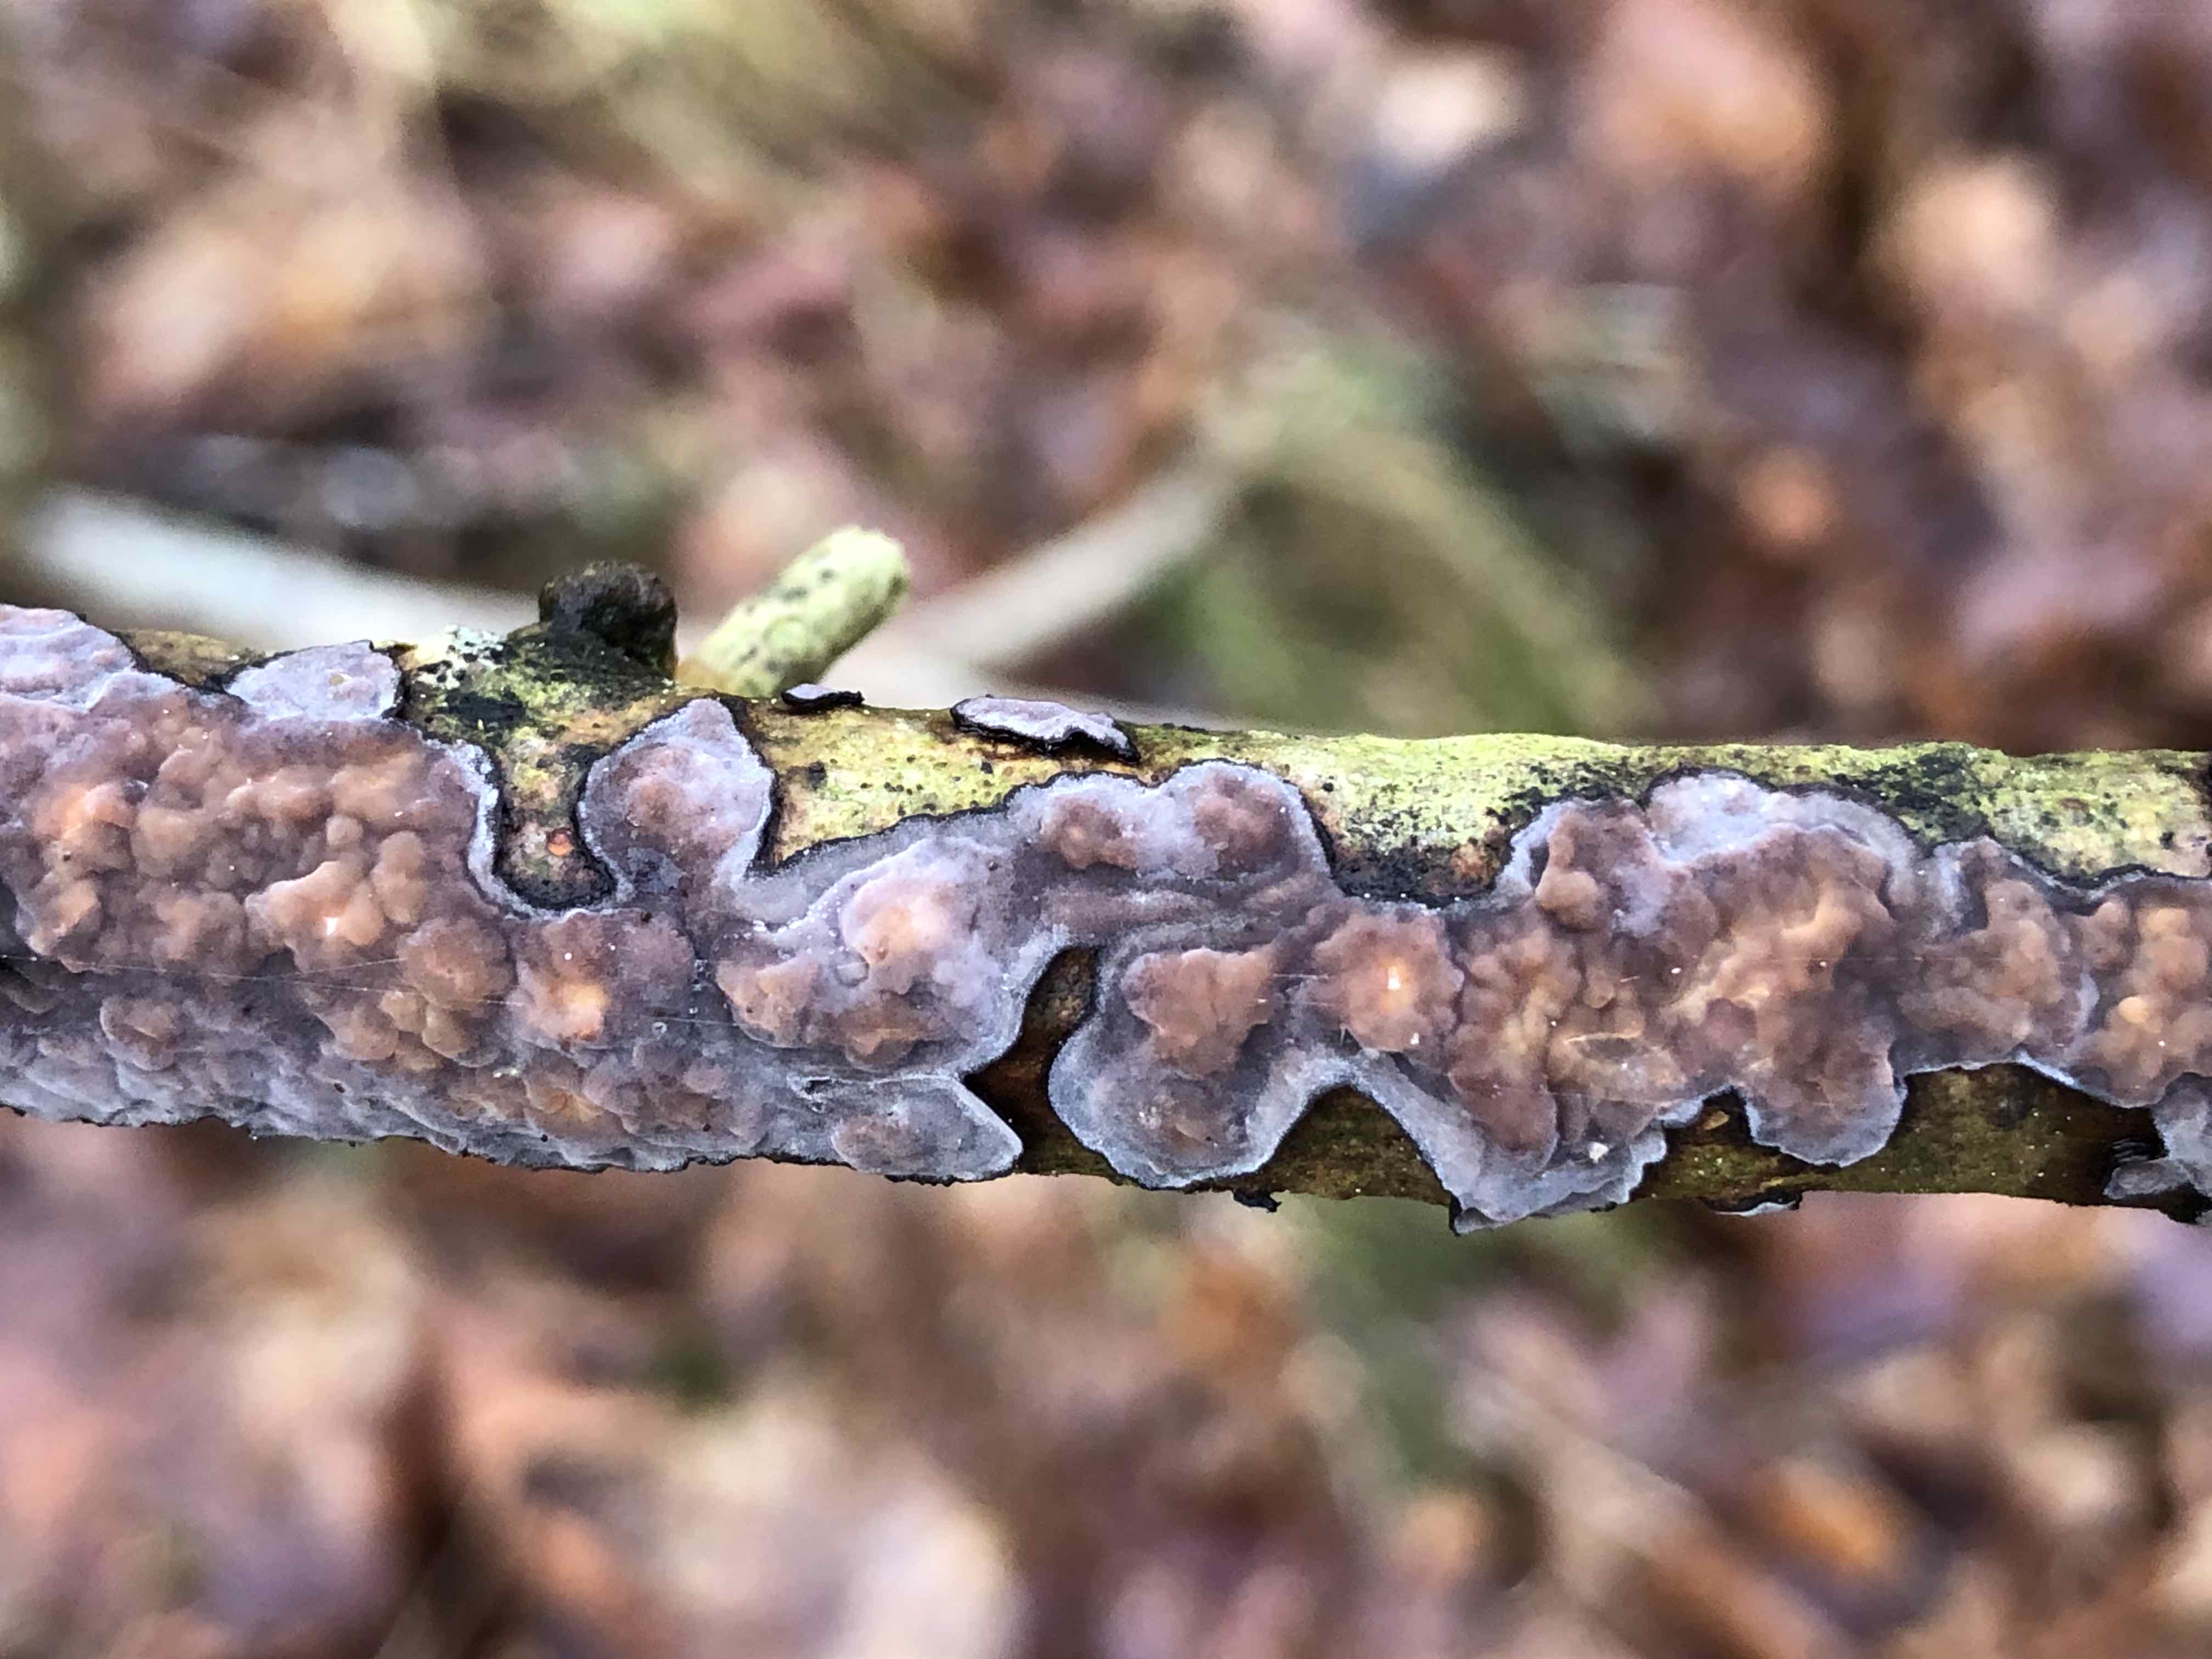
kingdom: Fungi
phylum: Basidiomycota
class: Agaricomycetes
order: Russulales
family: Peniophoraceae
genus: Peniophora
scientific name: Peniophora quercina
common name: ege-voksskind
